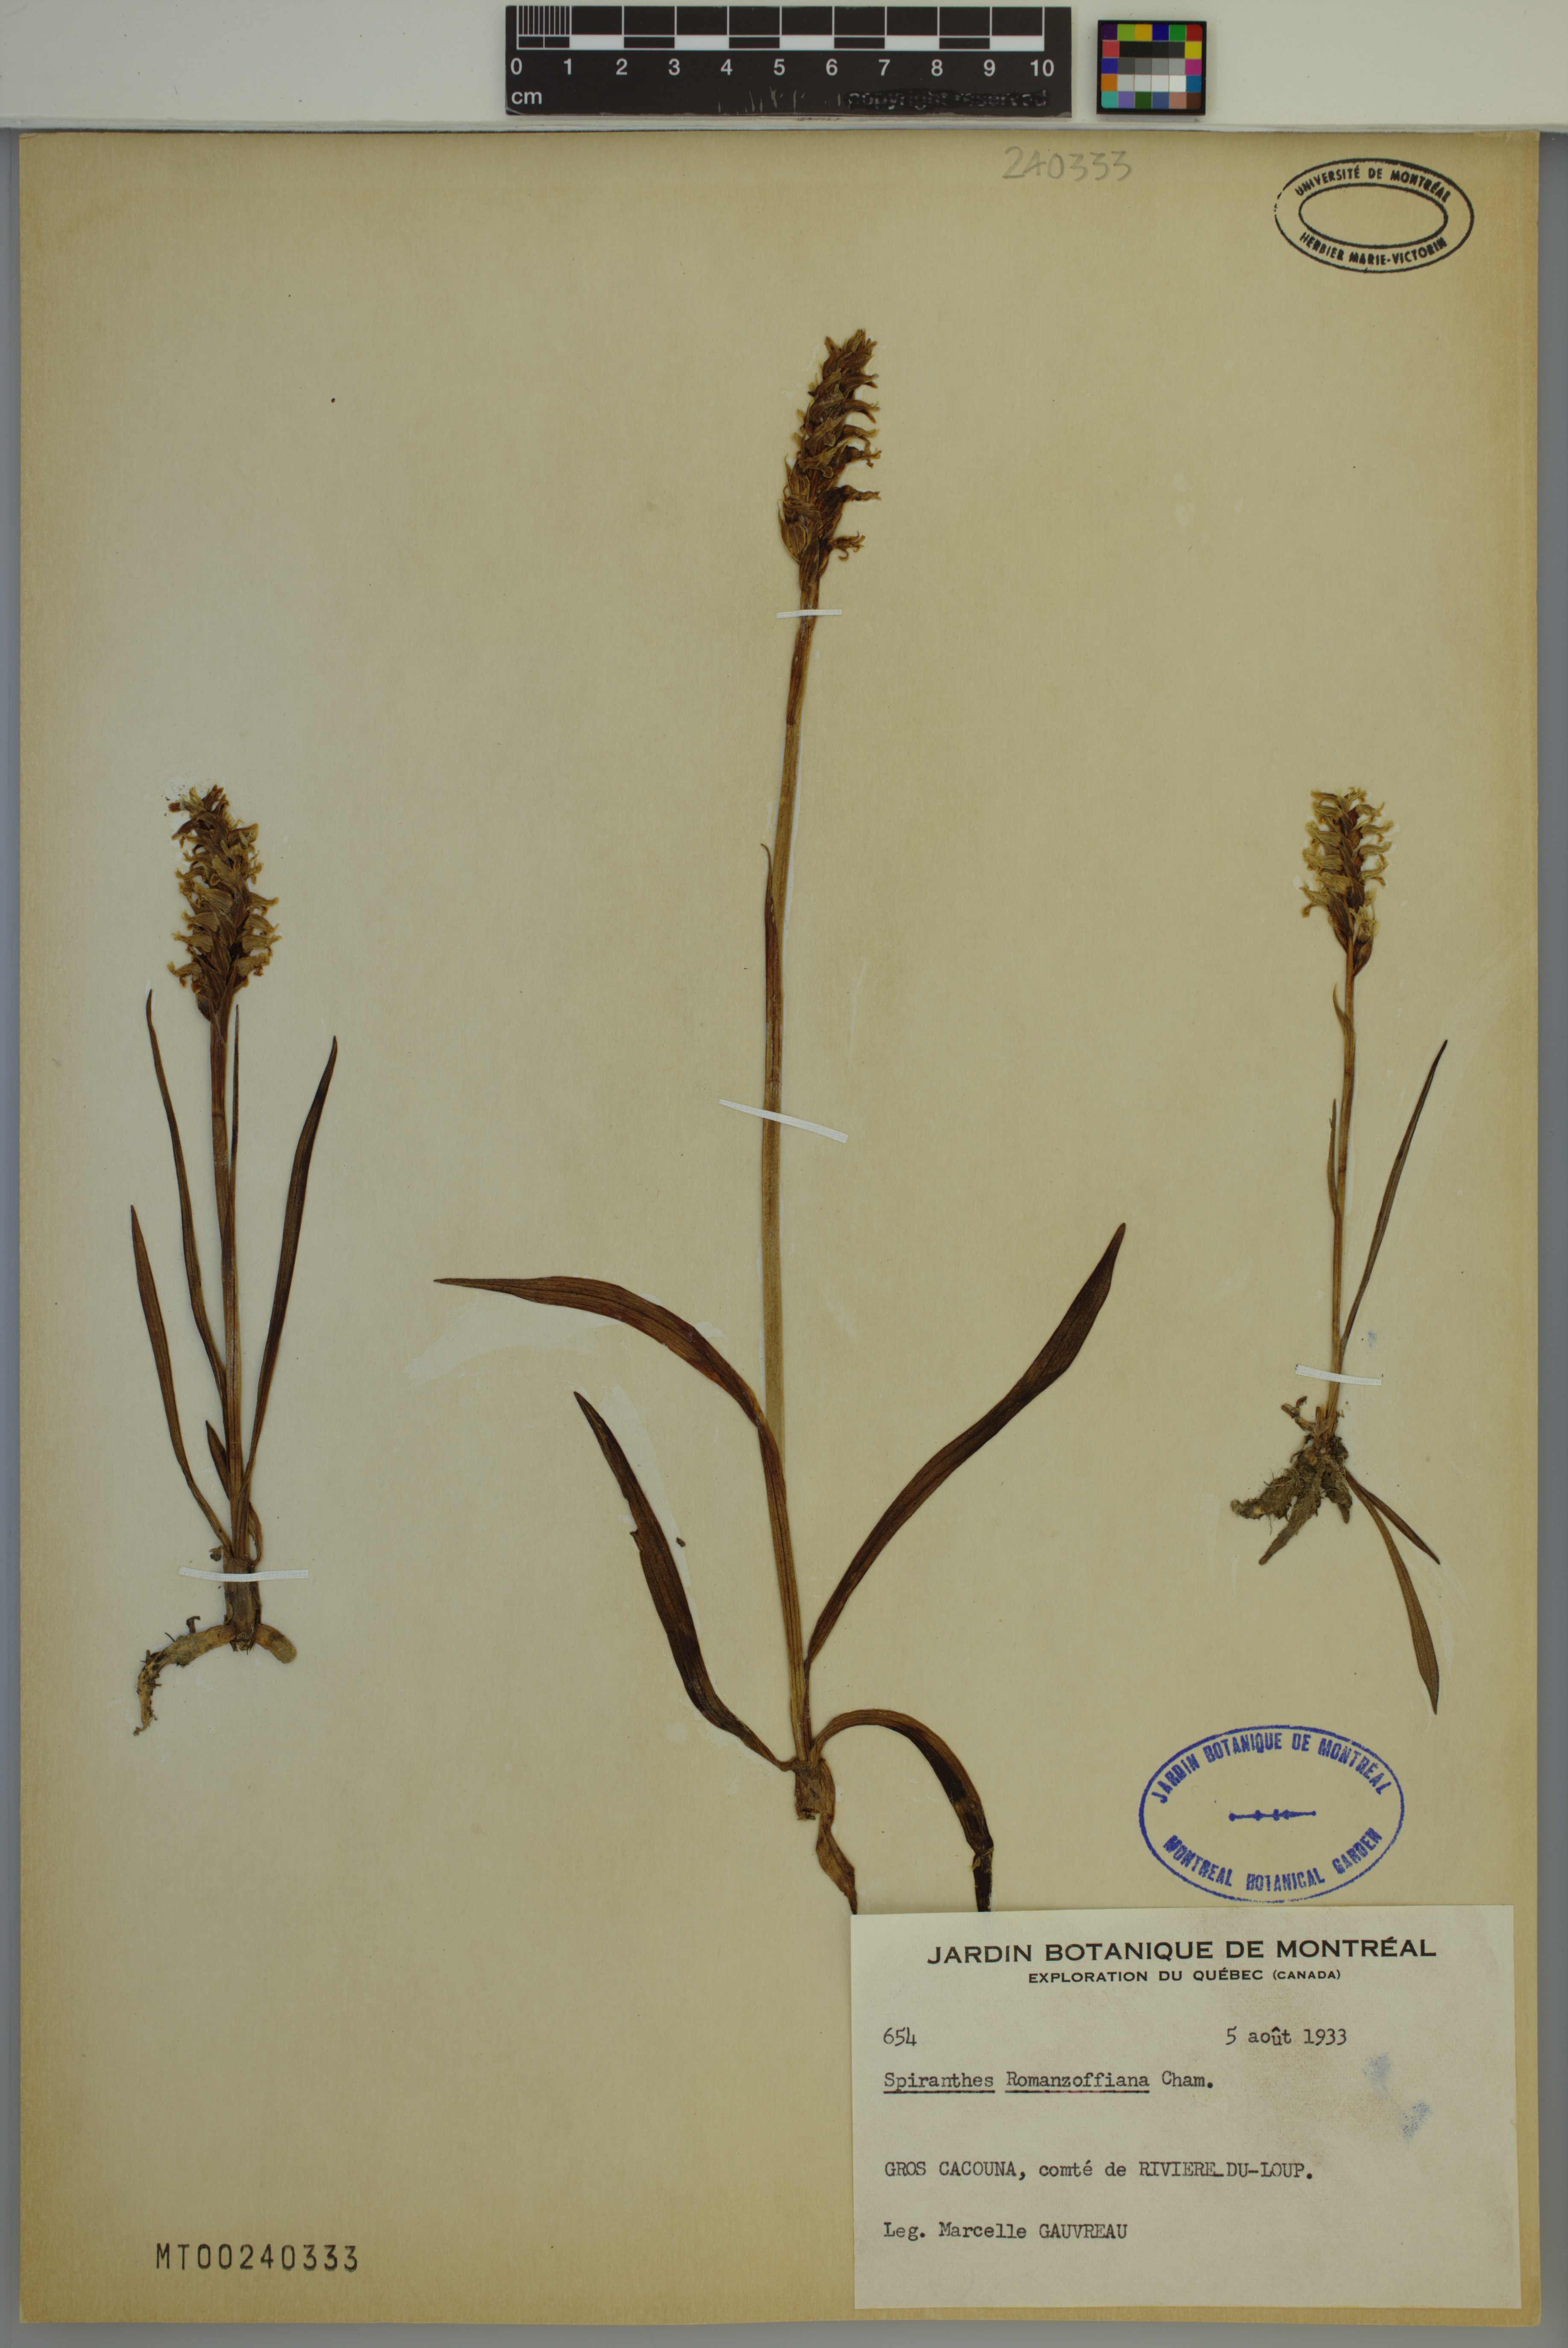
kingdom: Plantae
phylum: Tracheophyta
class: Liliopsida
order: Asparagales
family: Orchidaceae
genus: Spiranthes
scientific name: Spiranthes romanzoffiana
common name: Irish lady's-tresses
